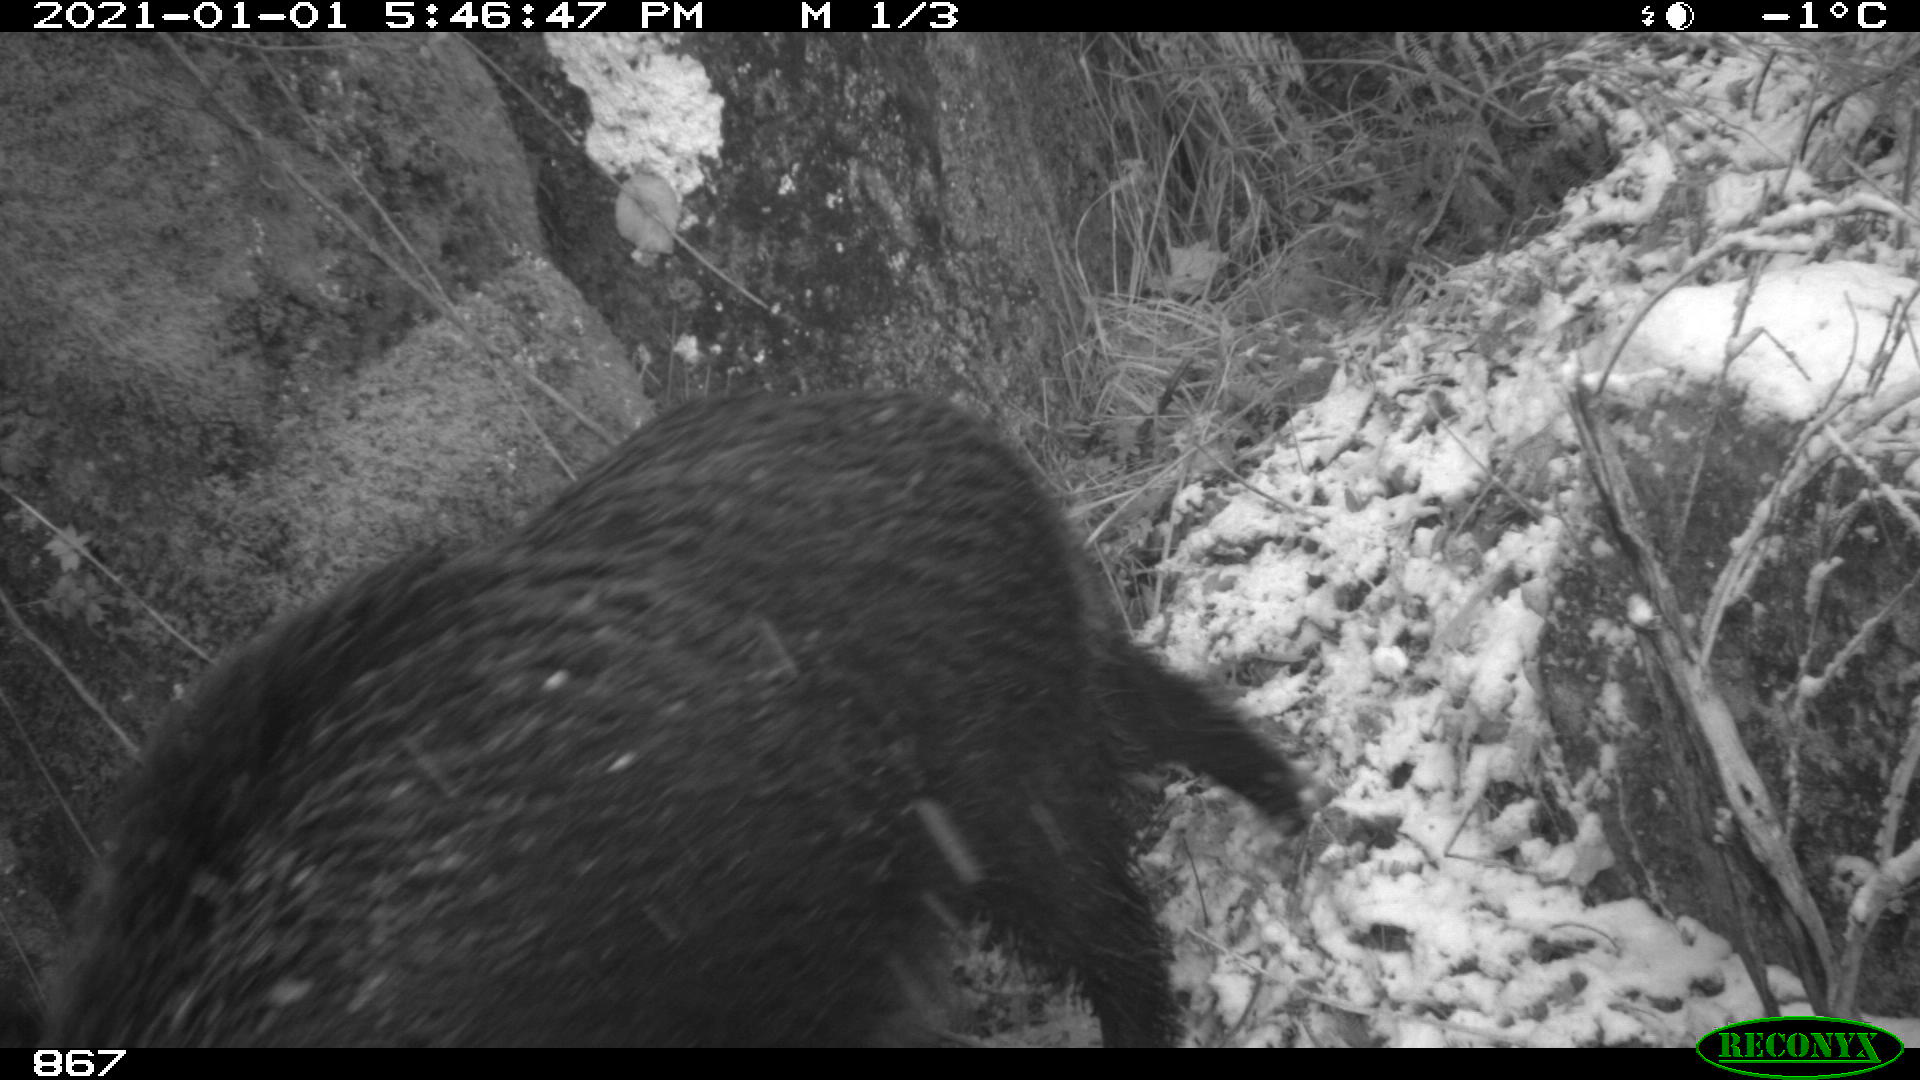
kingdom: Animalia
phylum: Chordata
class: Mammalia
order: Artiodactyla
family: Suidae
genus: Sus
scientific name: Sus scrofa
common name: Wild boar
